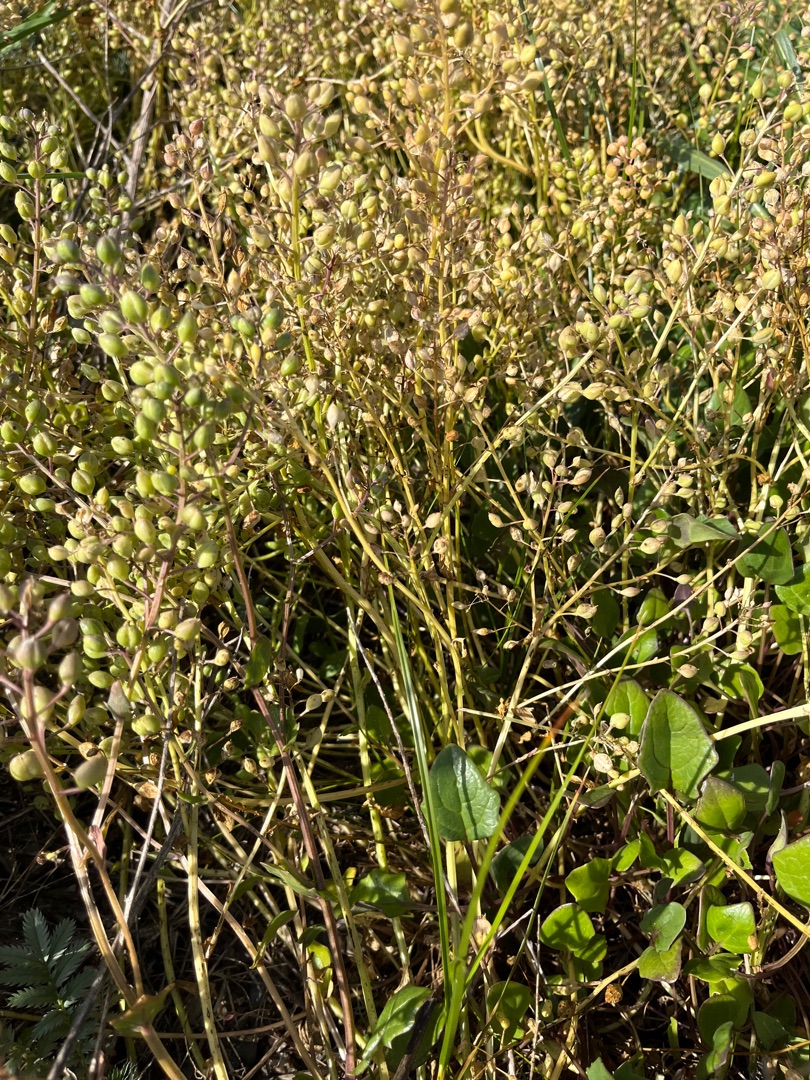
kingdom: Plantae
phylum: Tracheophyta
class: Magnoliopsida
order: Brassicales
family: Brassicaceae
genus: Cochlearia
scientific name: Cochlearia anglica
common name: Engelsk kokleare
